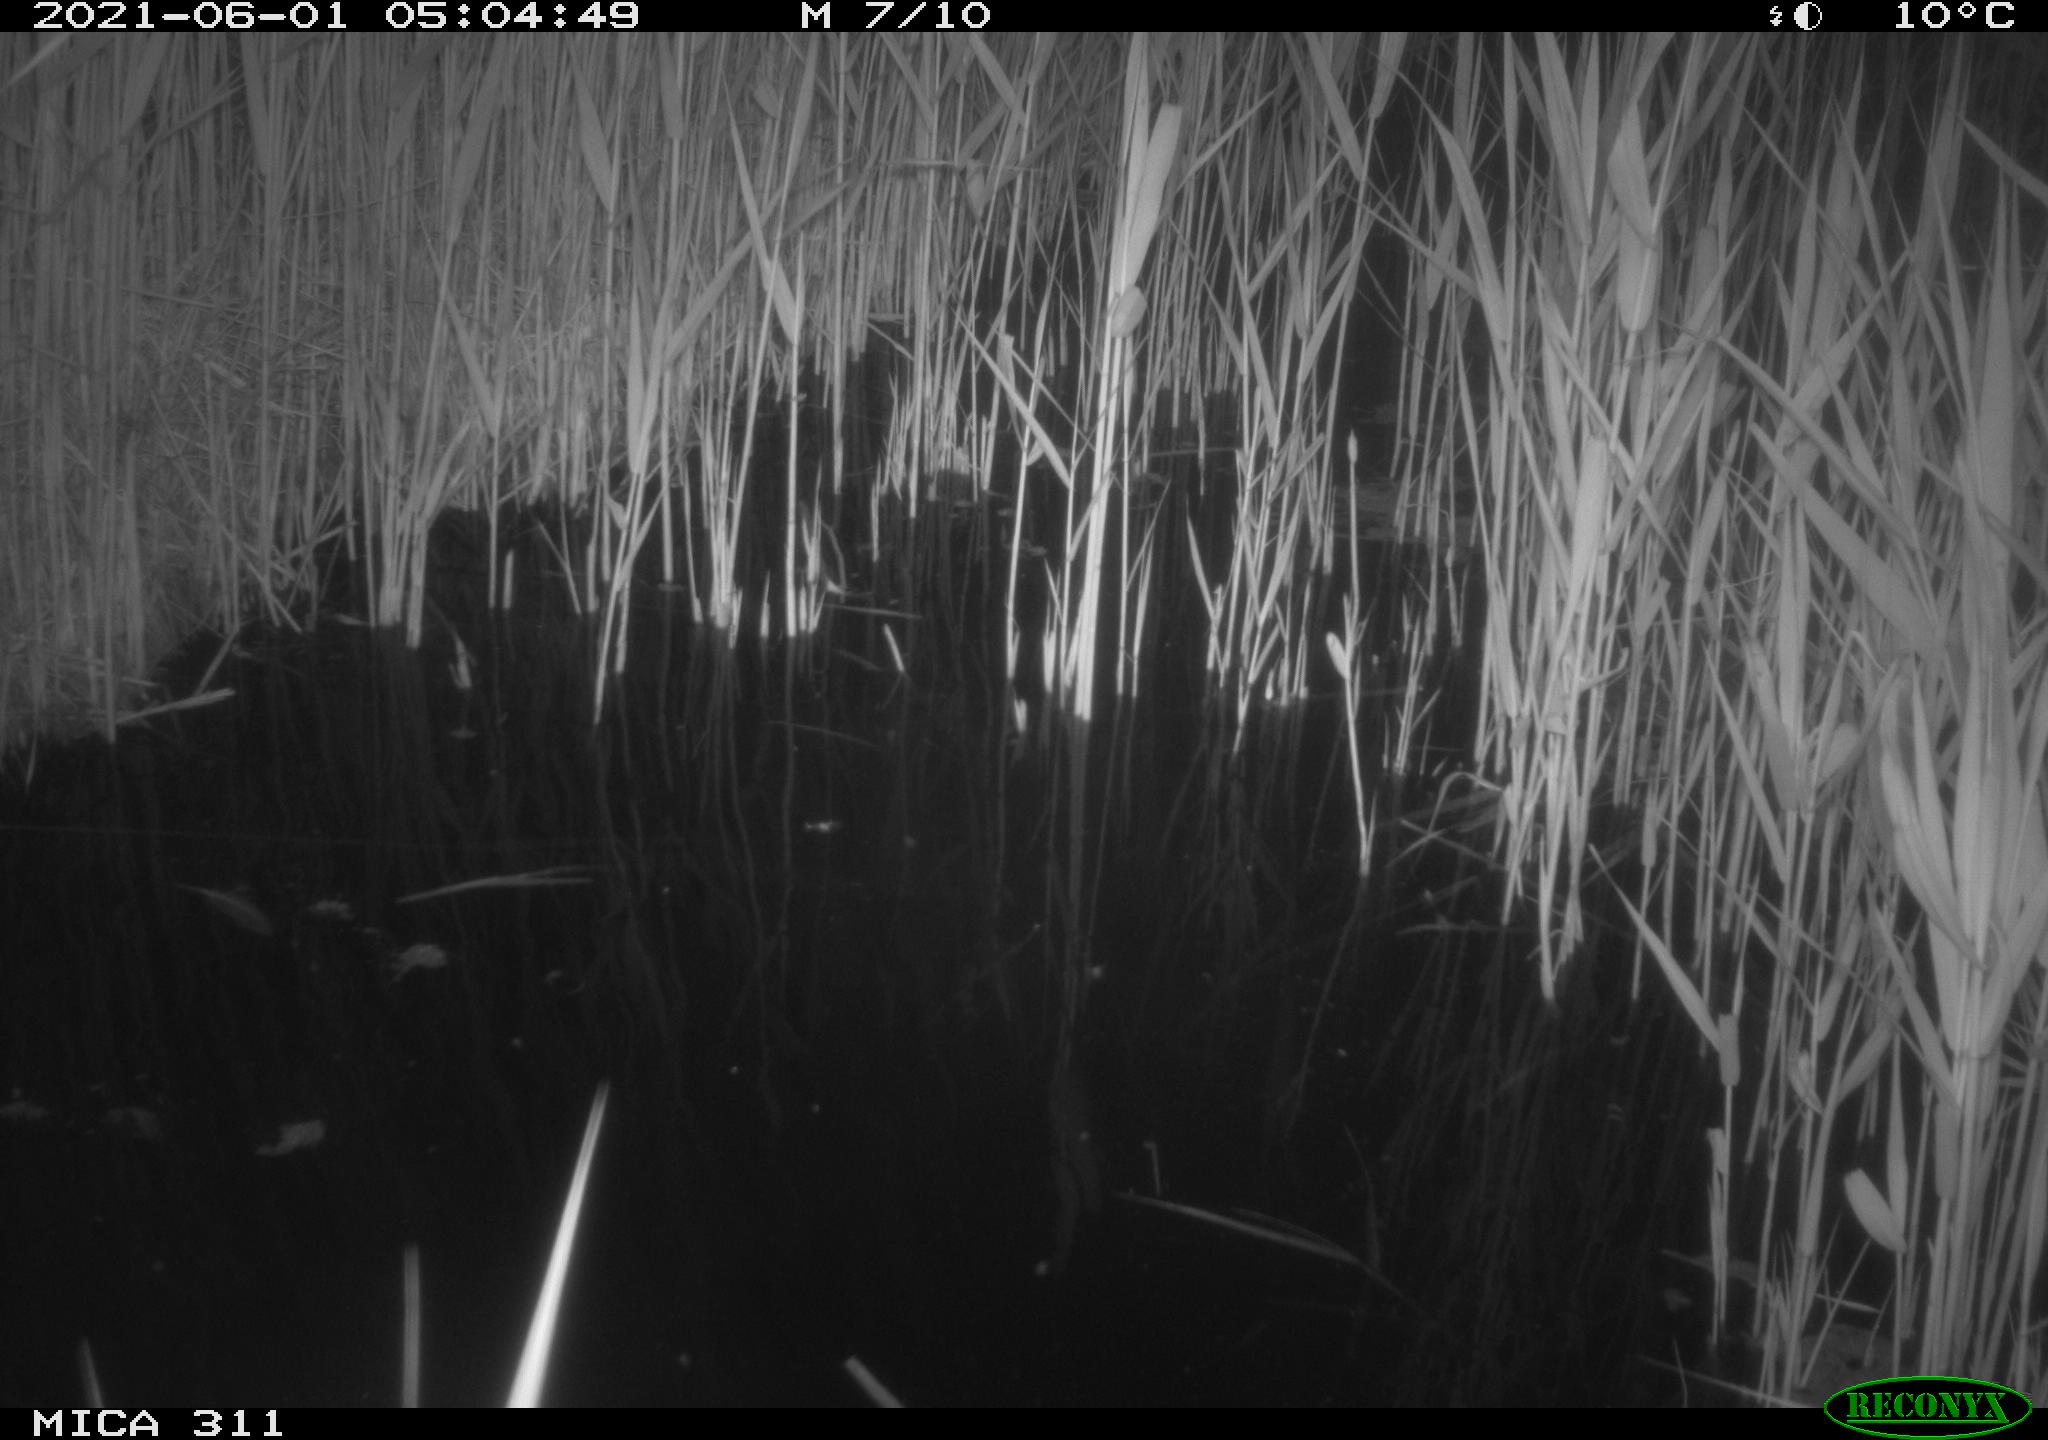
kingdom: Animalia
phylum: Chordata
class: Aves
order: Gruiformes
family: Rallidae
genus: Gallinula
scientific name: Gallinula chloropus
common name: Common moorhen
